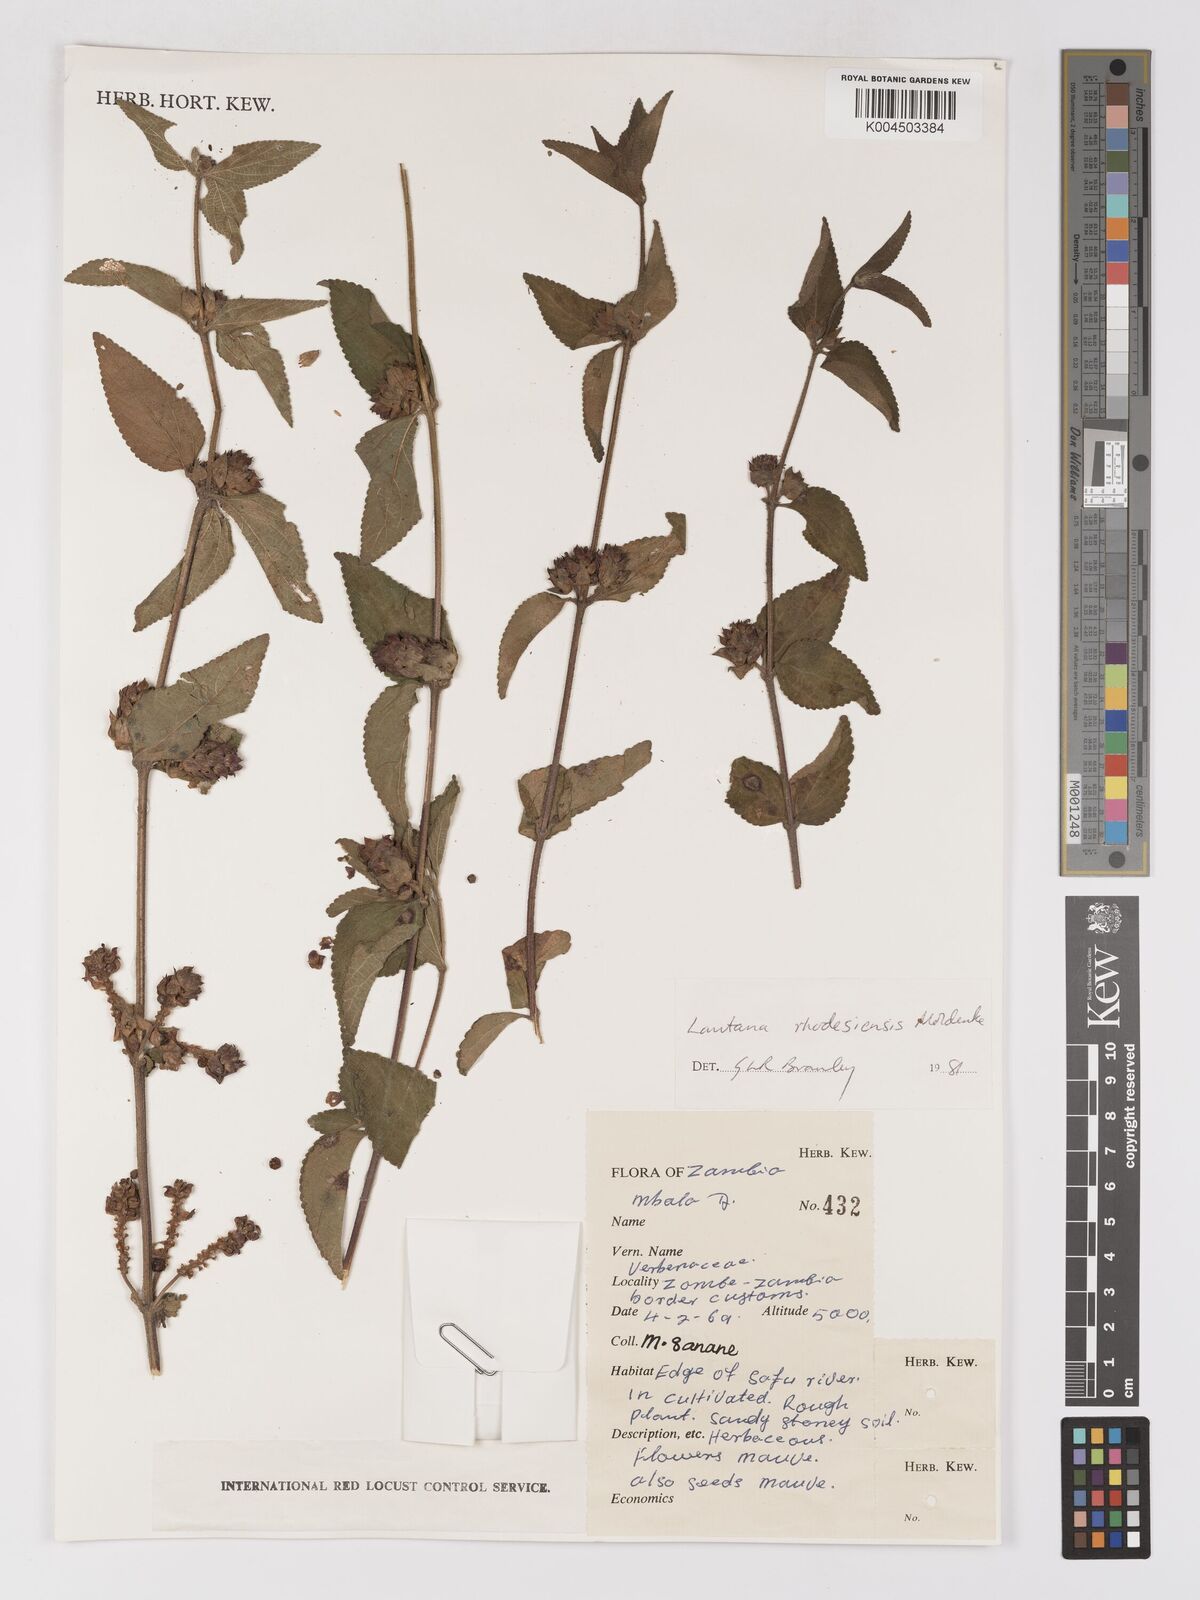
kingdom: Plantae
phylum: Tracheophyta
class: Magnoliopsida
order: Lamiales
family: Verbenaceae
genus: Lantana
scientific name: Lantana ukambensis
